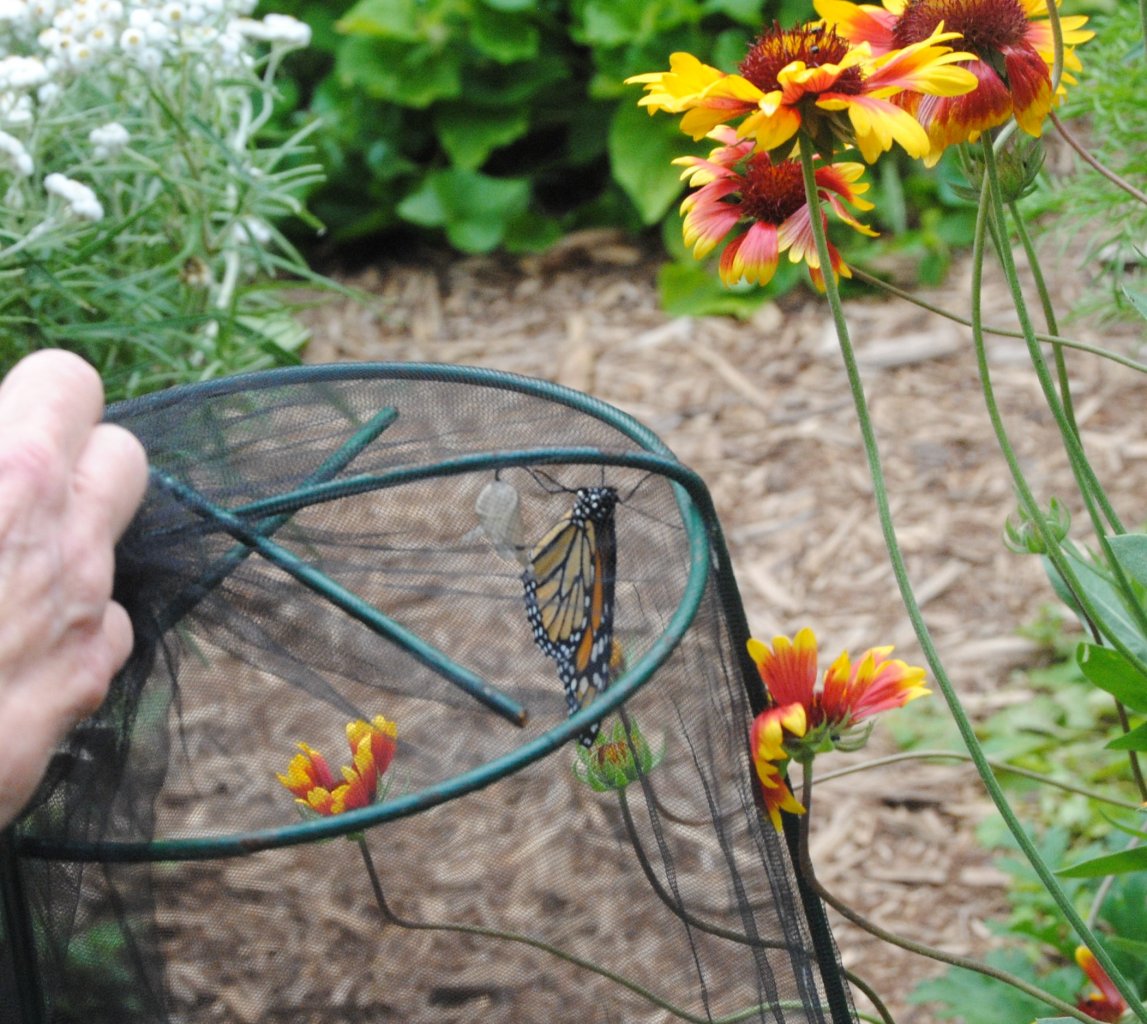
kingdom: Animalia
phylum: Arthropoda
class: Insecta
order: Lepidoptera
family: Nymphalidae
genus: Danaus
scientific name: Danaus plexippus
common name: Monarch
